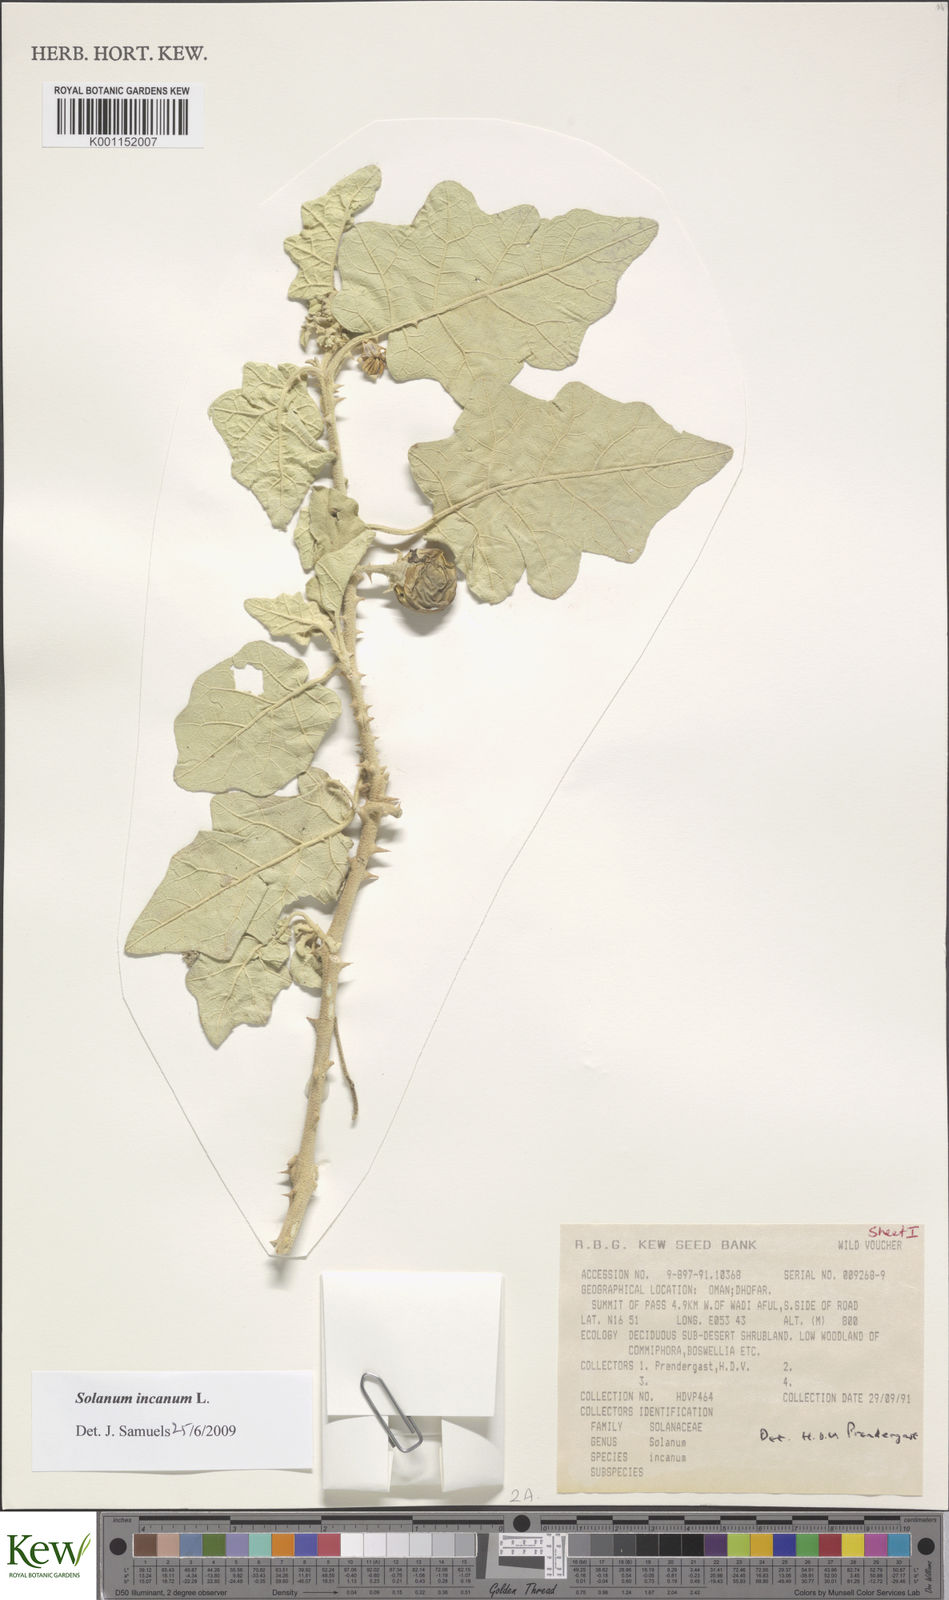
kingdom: Plantae
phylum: Tracheophyta
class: Magnoliopsida
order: Solanales
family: Solanaceae
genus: Solanum
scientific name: Solanum incanum
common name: Bitter apple
